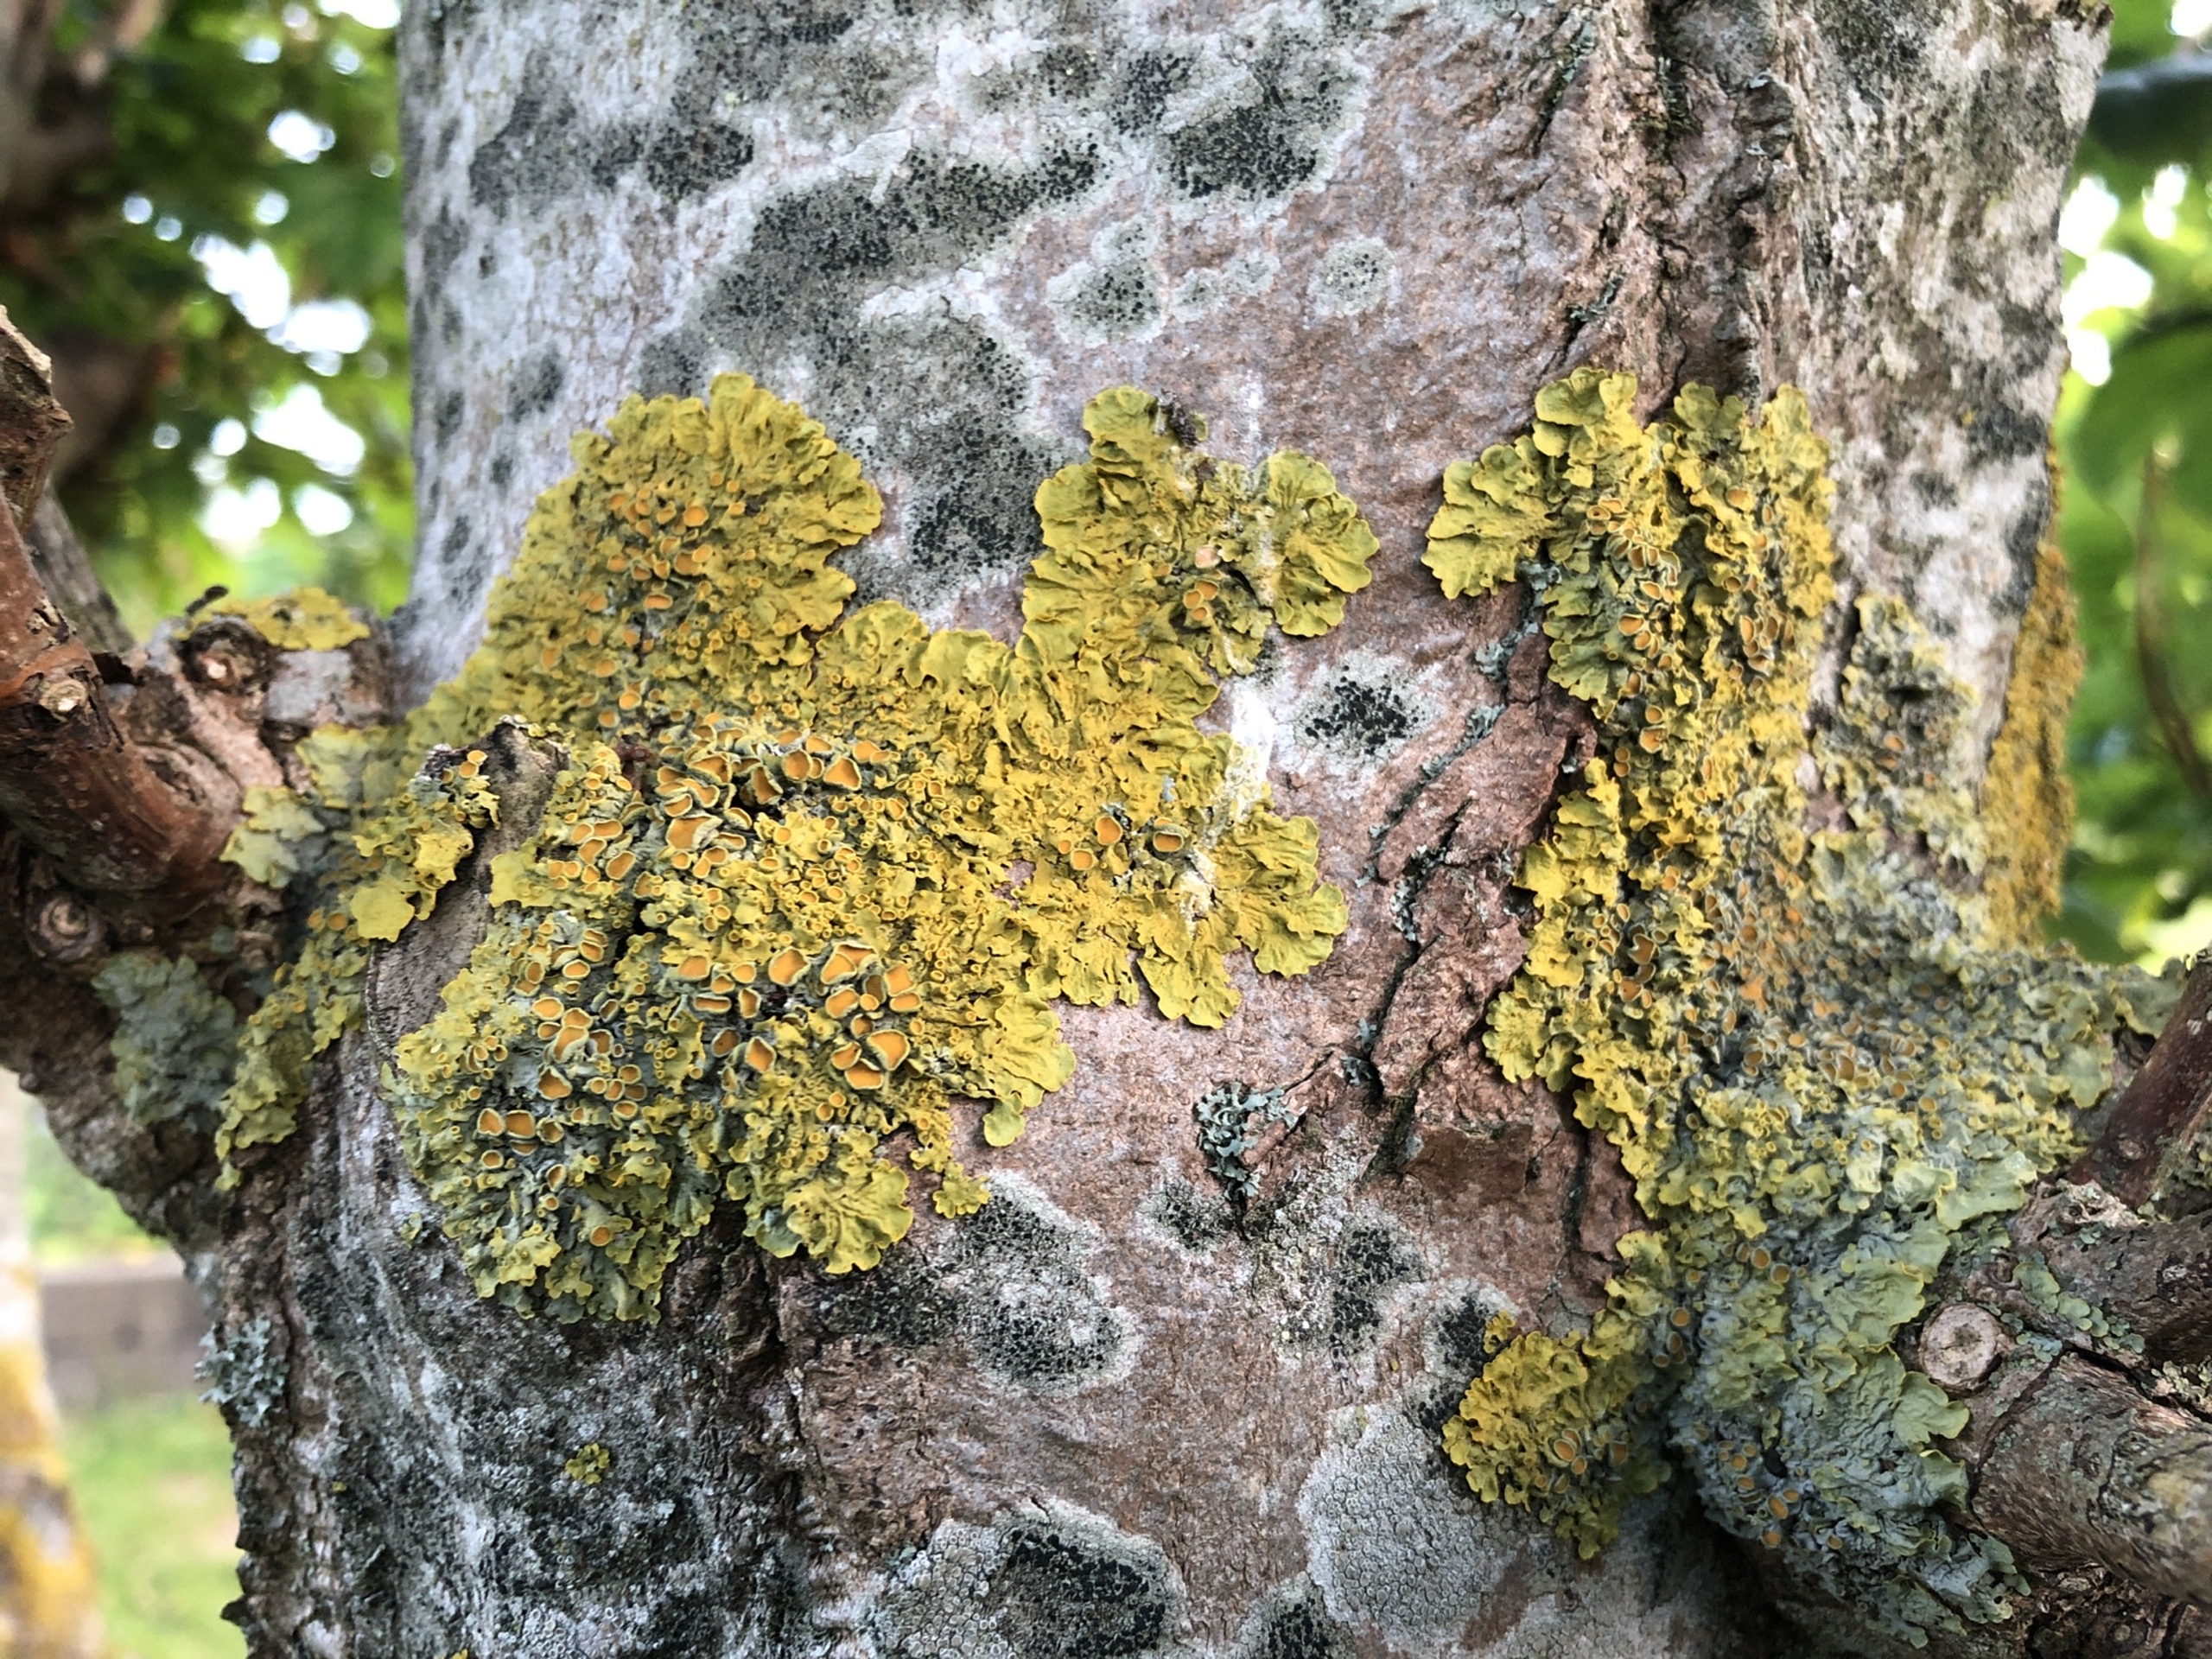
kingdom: Fungi
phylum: Ascomycota
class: Lecanoromycetes
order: Teloschistales
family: Teloschistaceae
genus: Xanthoria
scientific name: Xanthoria parietina
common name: Almindelig væggelav
